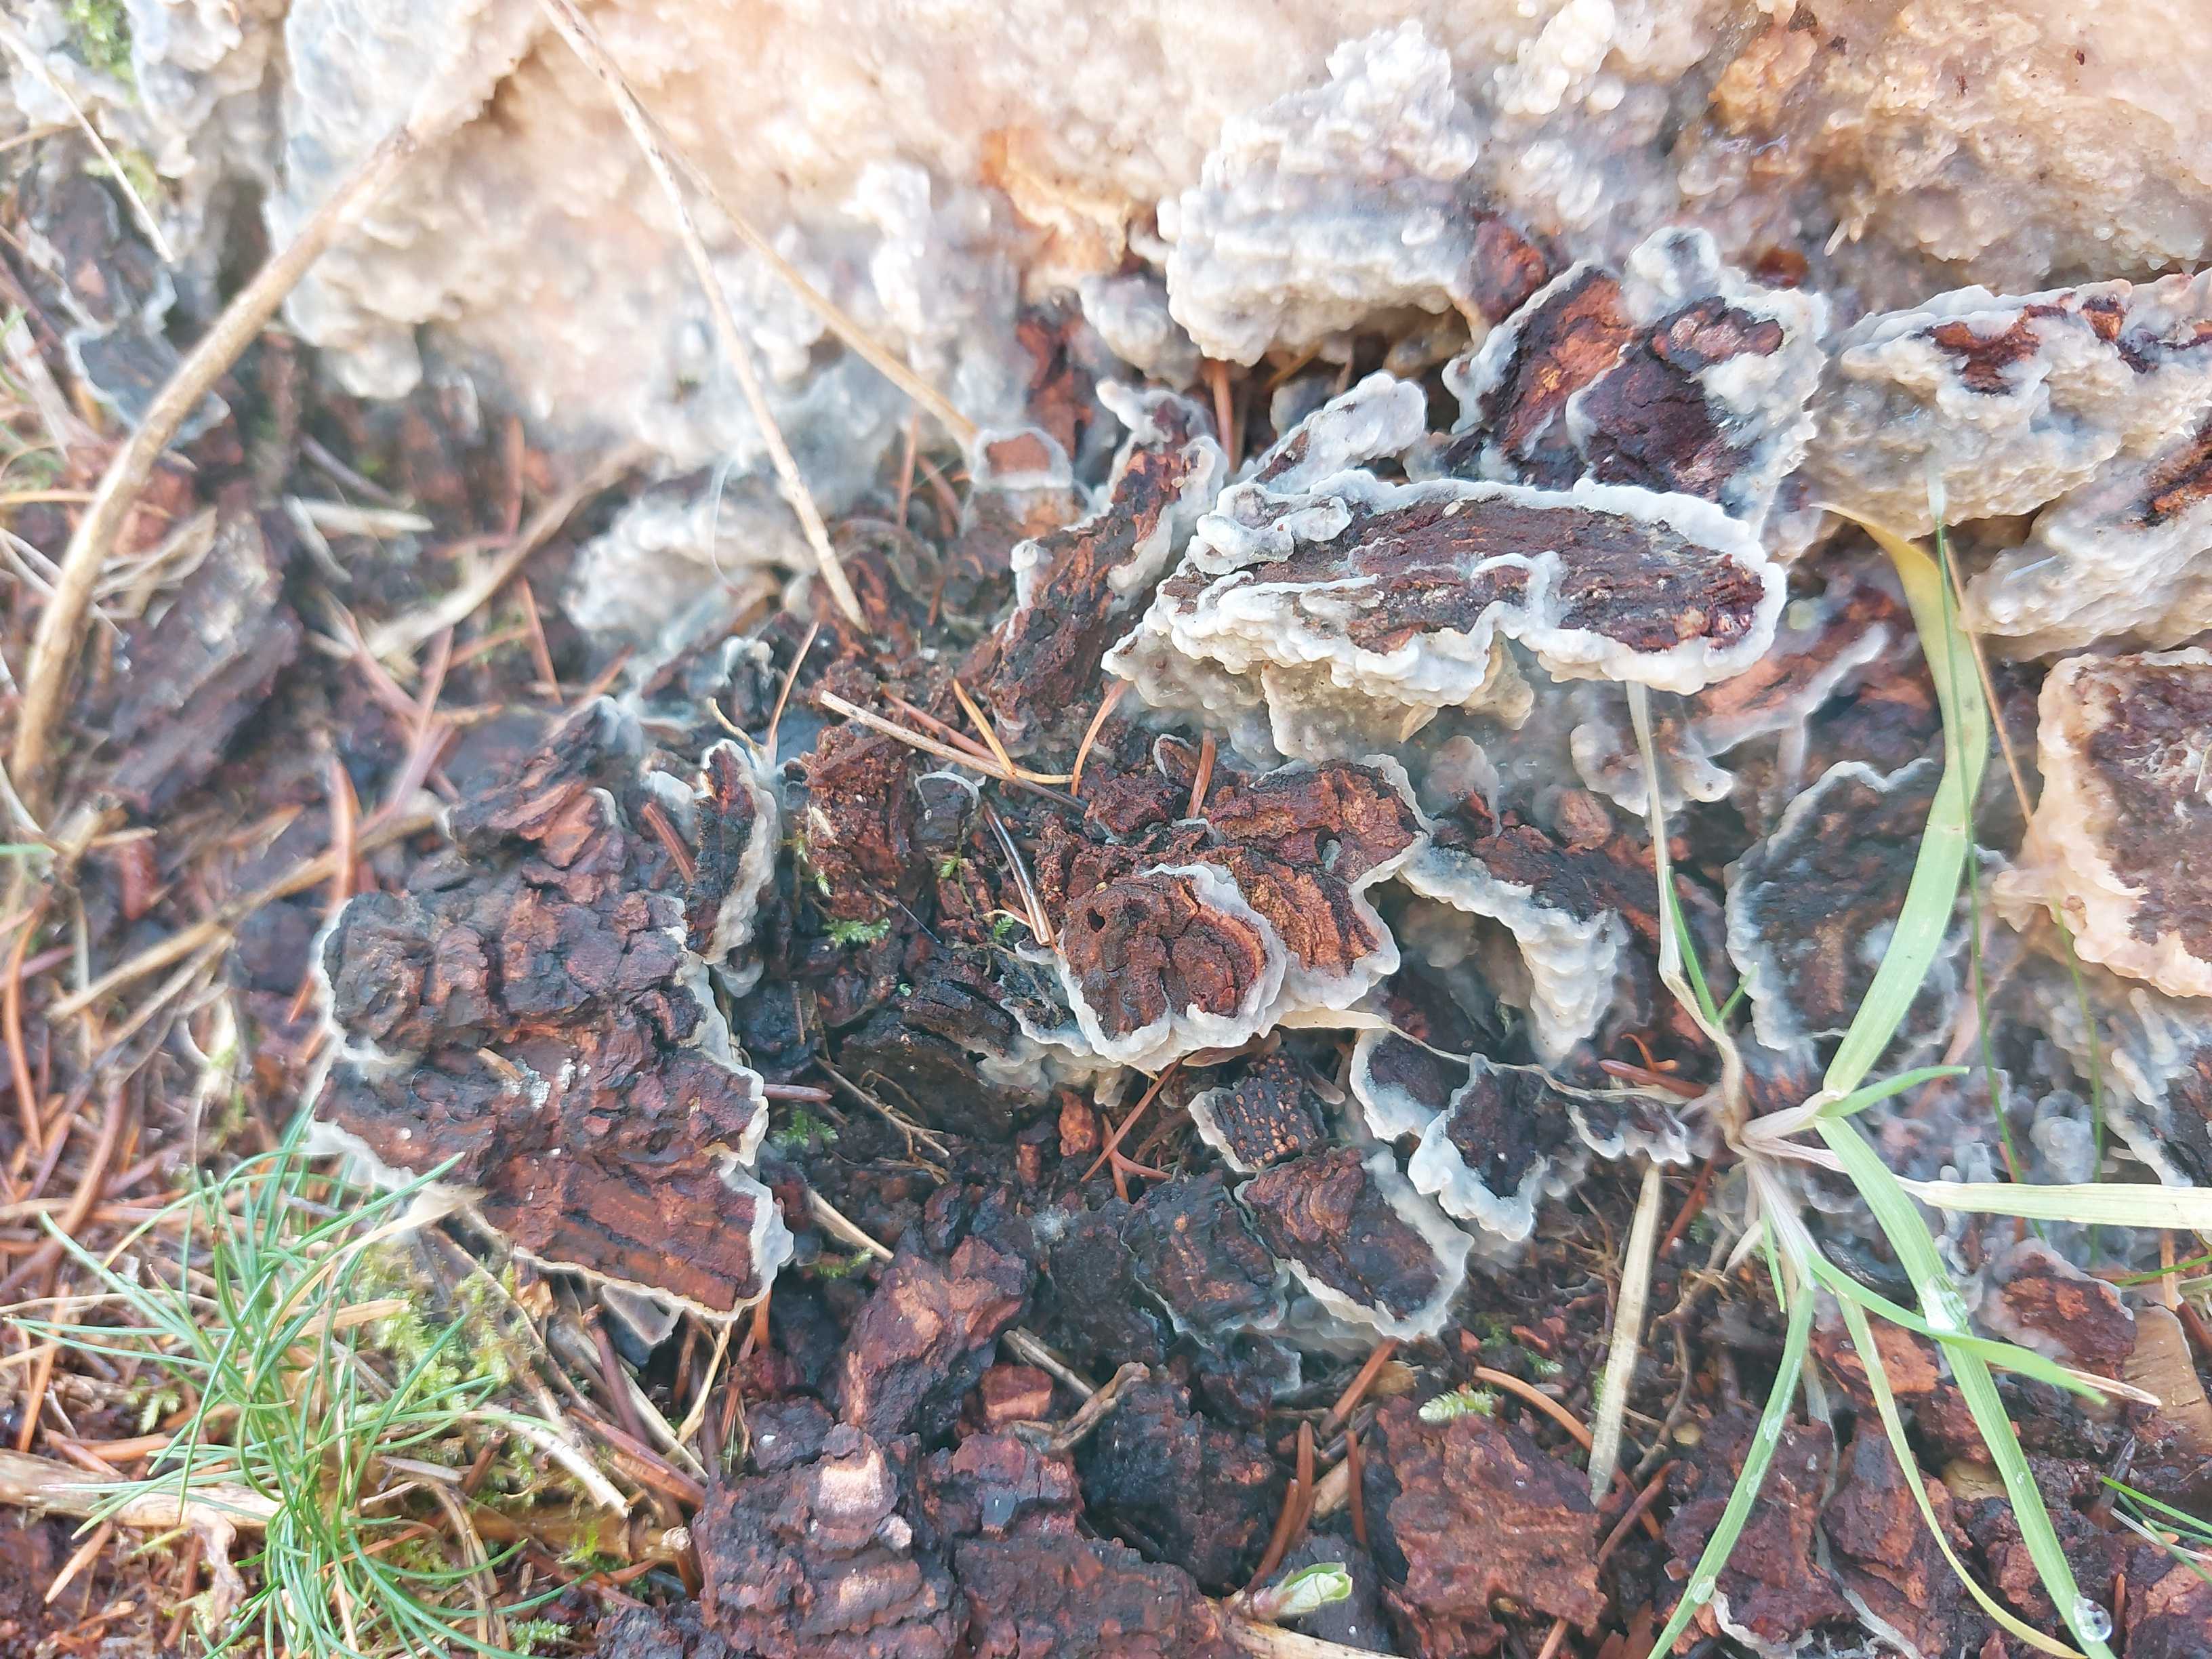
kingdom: Fungi
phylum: Basidiomycota
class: Agaricomycetes
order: Polyporales
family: Phanerochaetaceae
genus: Phlebiopsis
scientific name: Phlebiopsis gigantea
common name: kæmpebarksvamp
